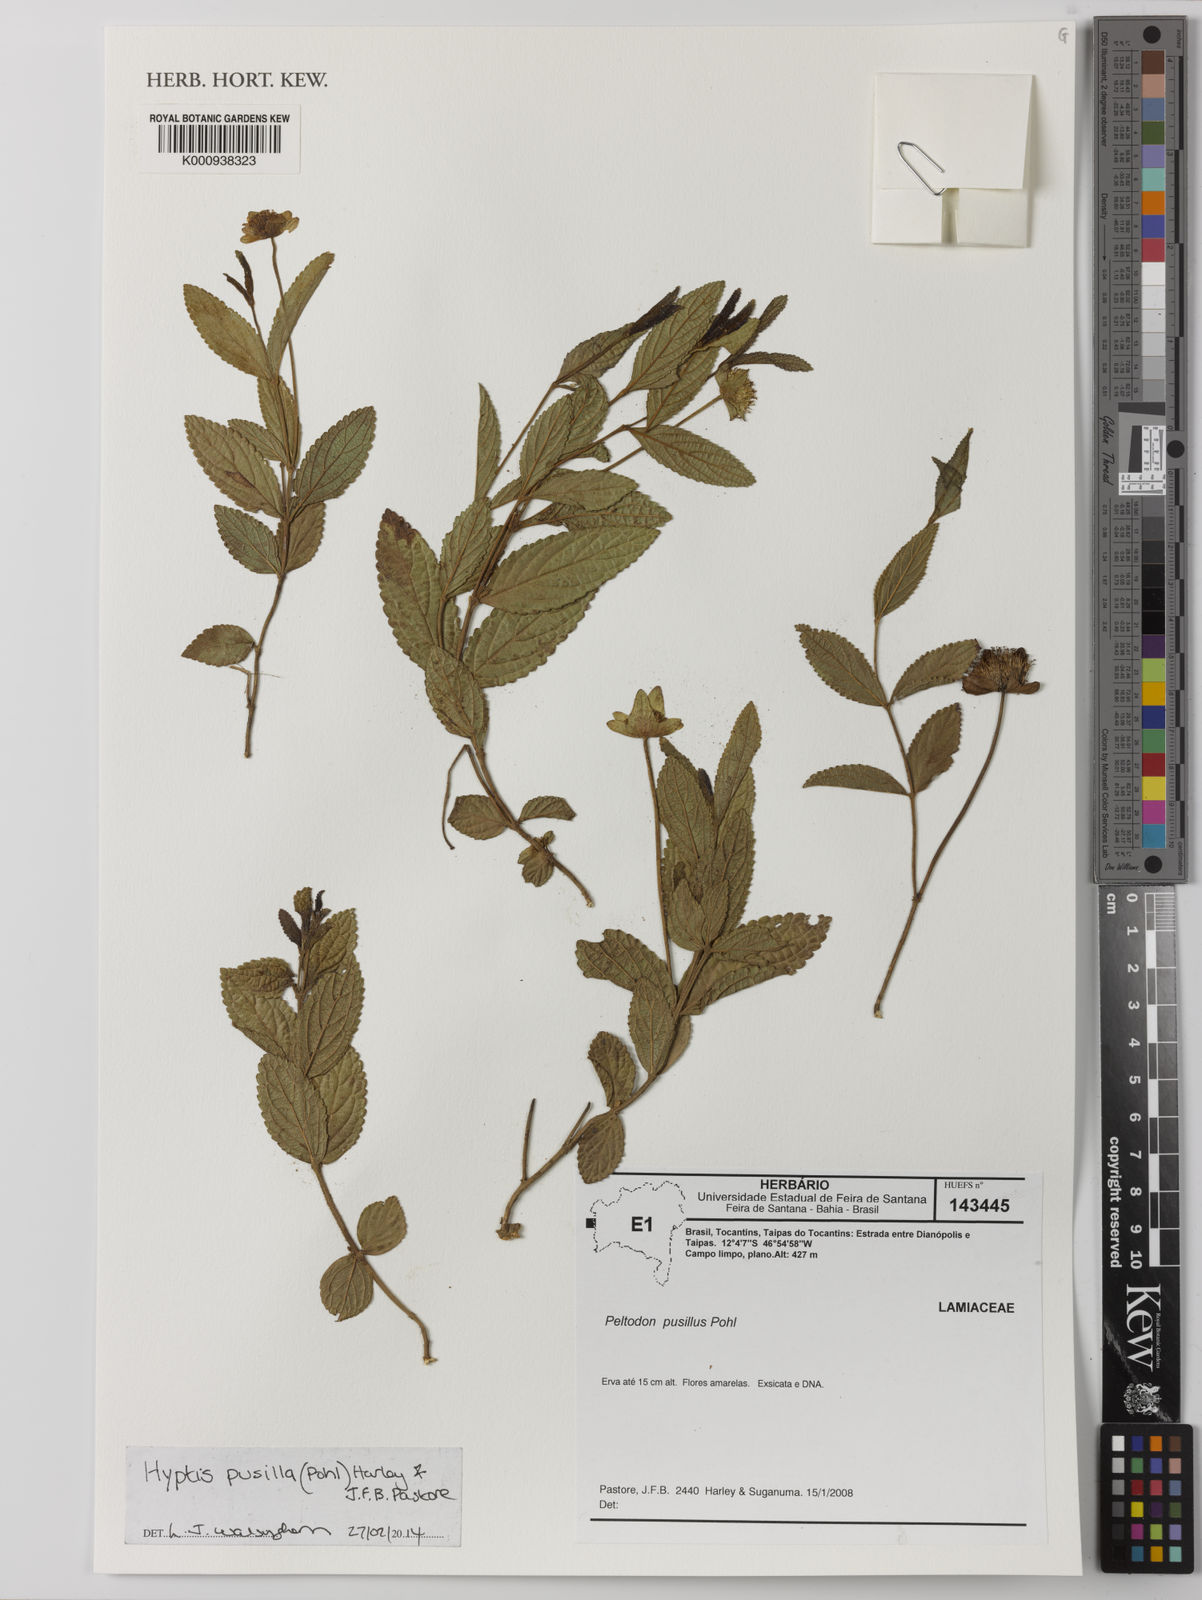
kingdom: Plantae
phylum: Tracheophyta
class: Magnoliopsida
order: Lamiales
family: Lamiaceae
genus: Hyptis
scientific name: Hyptis pusilla
